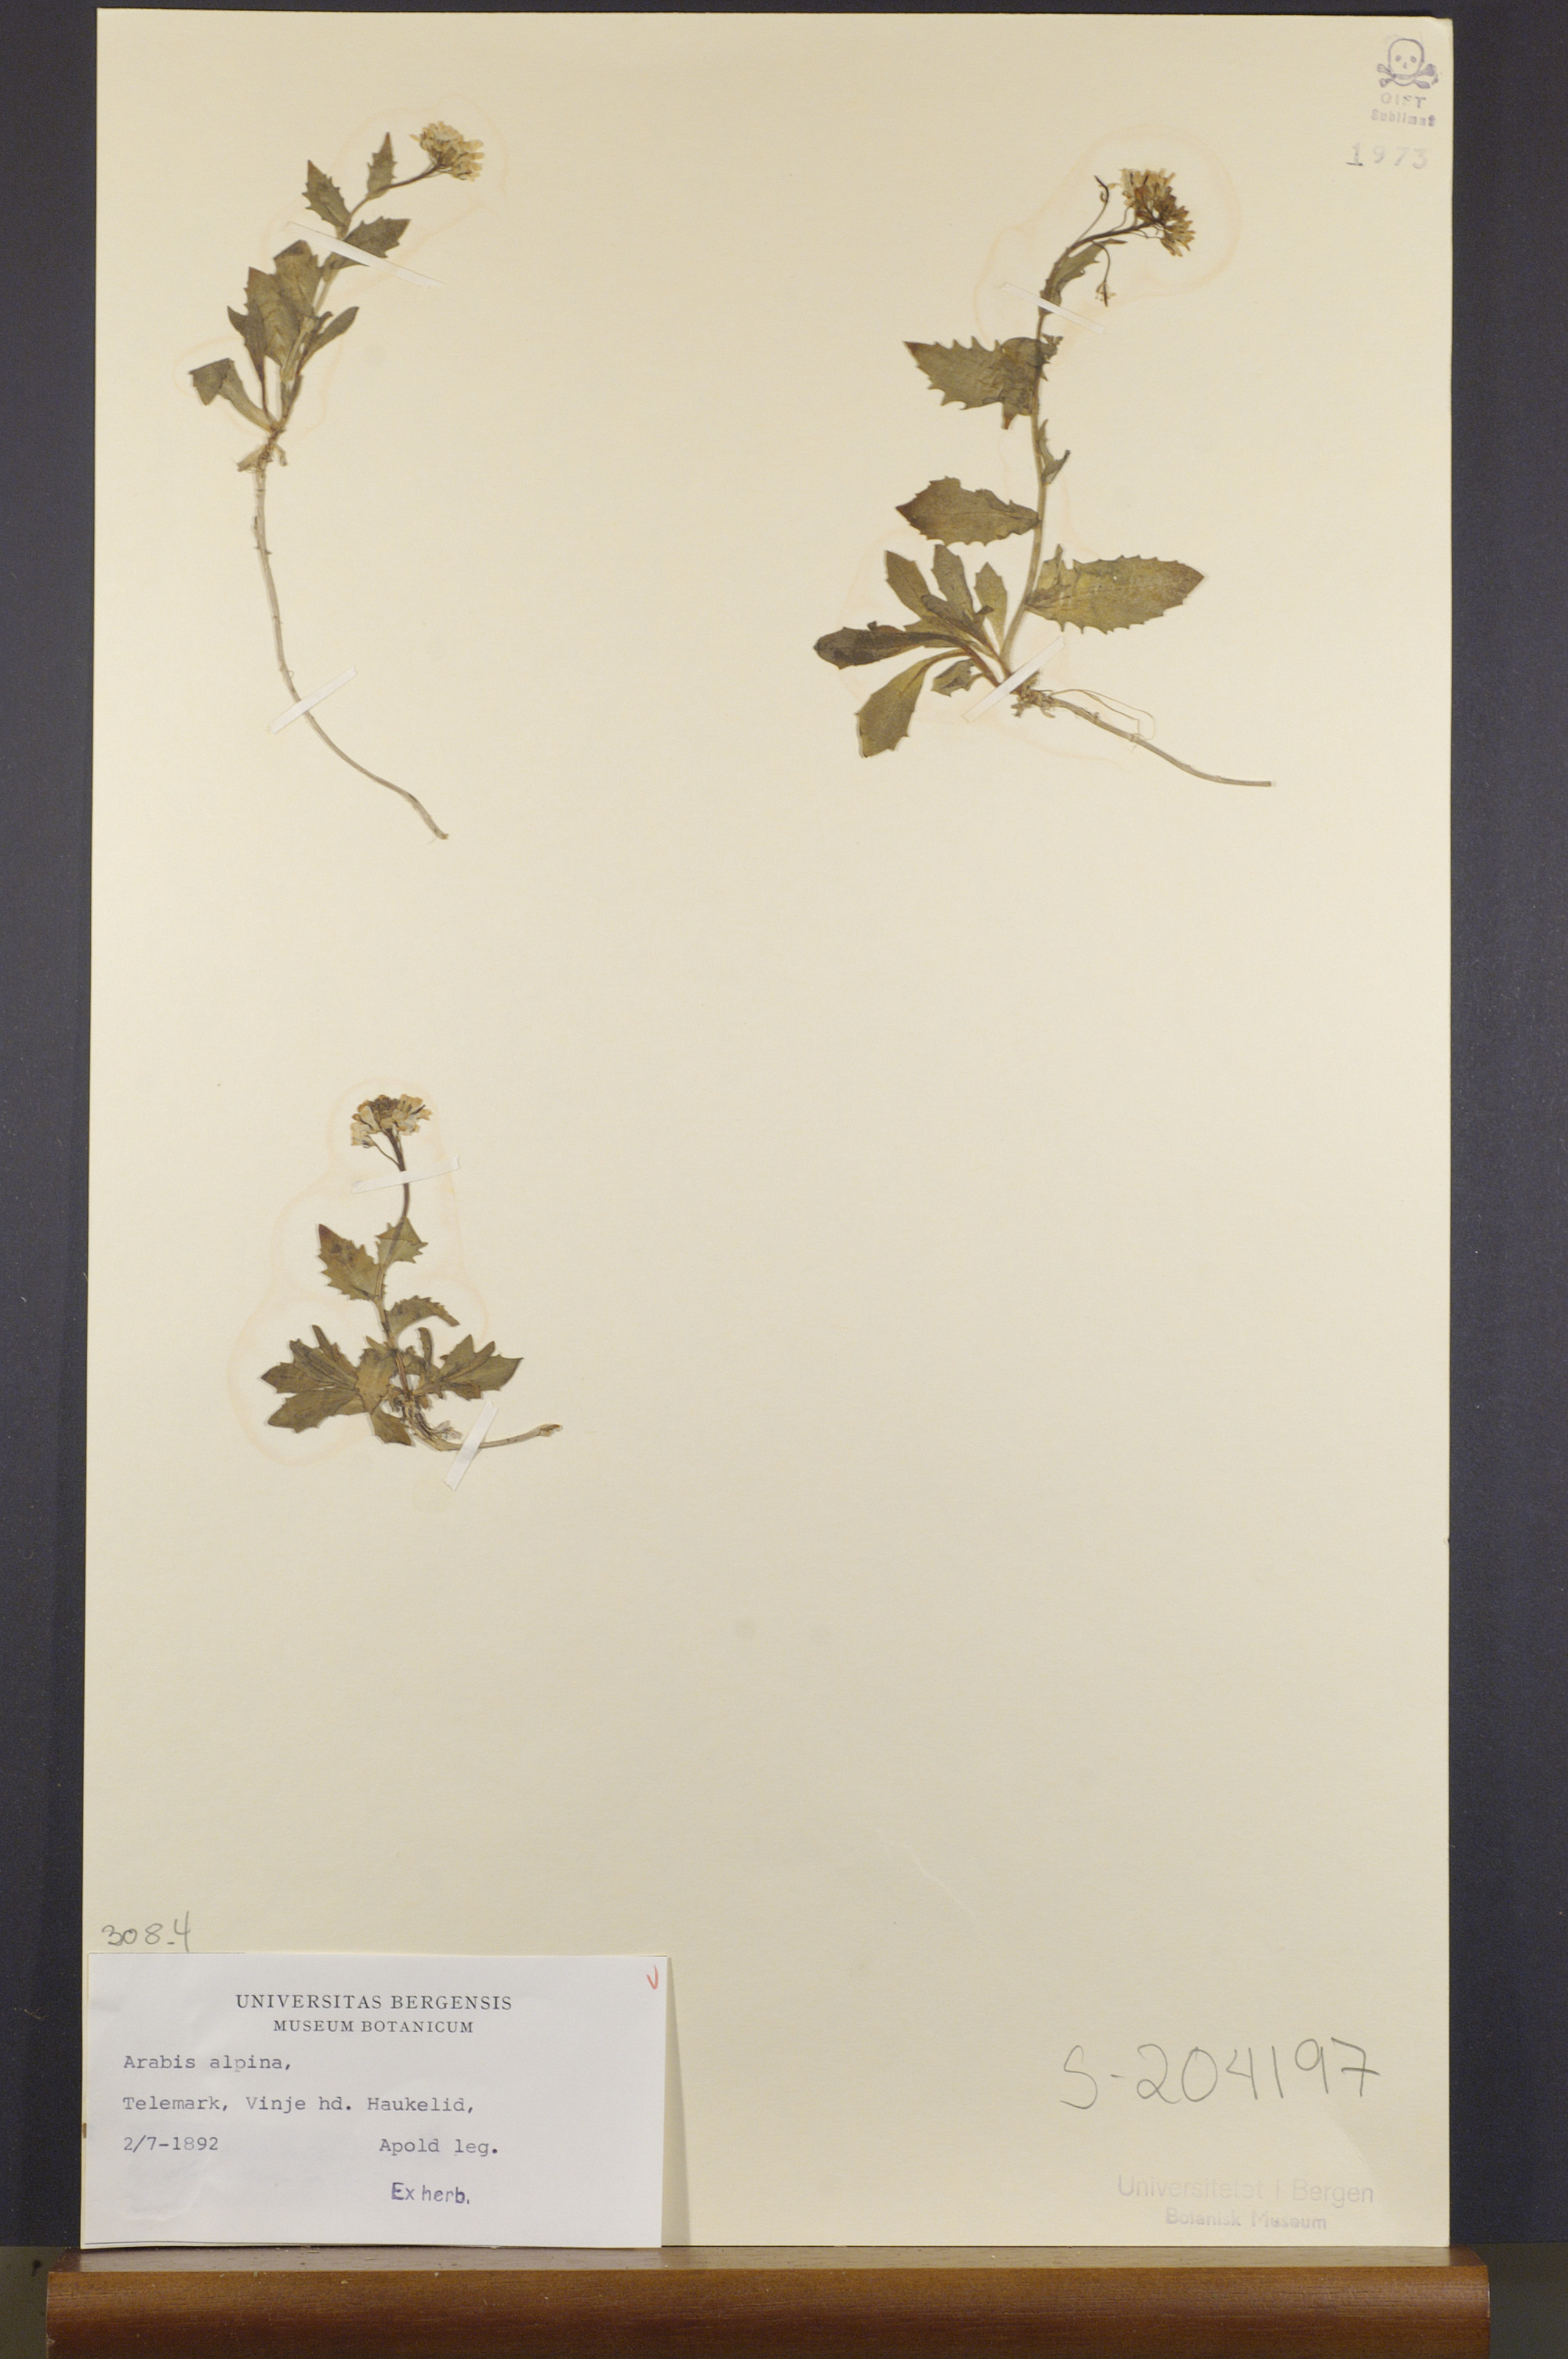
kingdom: Plantae
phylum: Tracheophyta
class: Magnoliopsida
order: Brassicales
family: Brassicaceae
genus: Arabis
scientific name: Arabis alpina
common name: Alpine rock-cress
